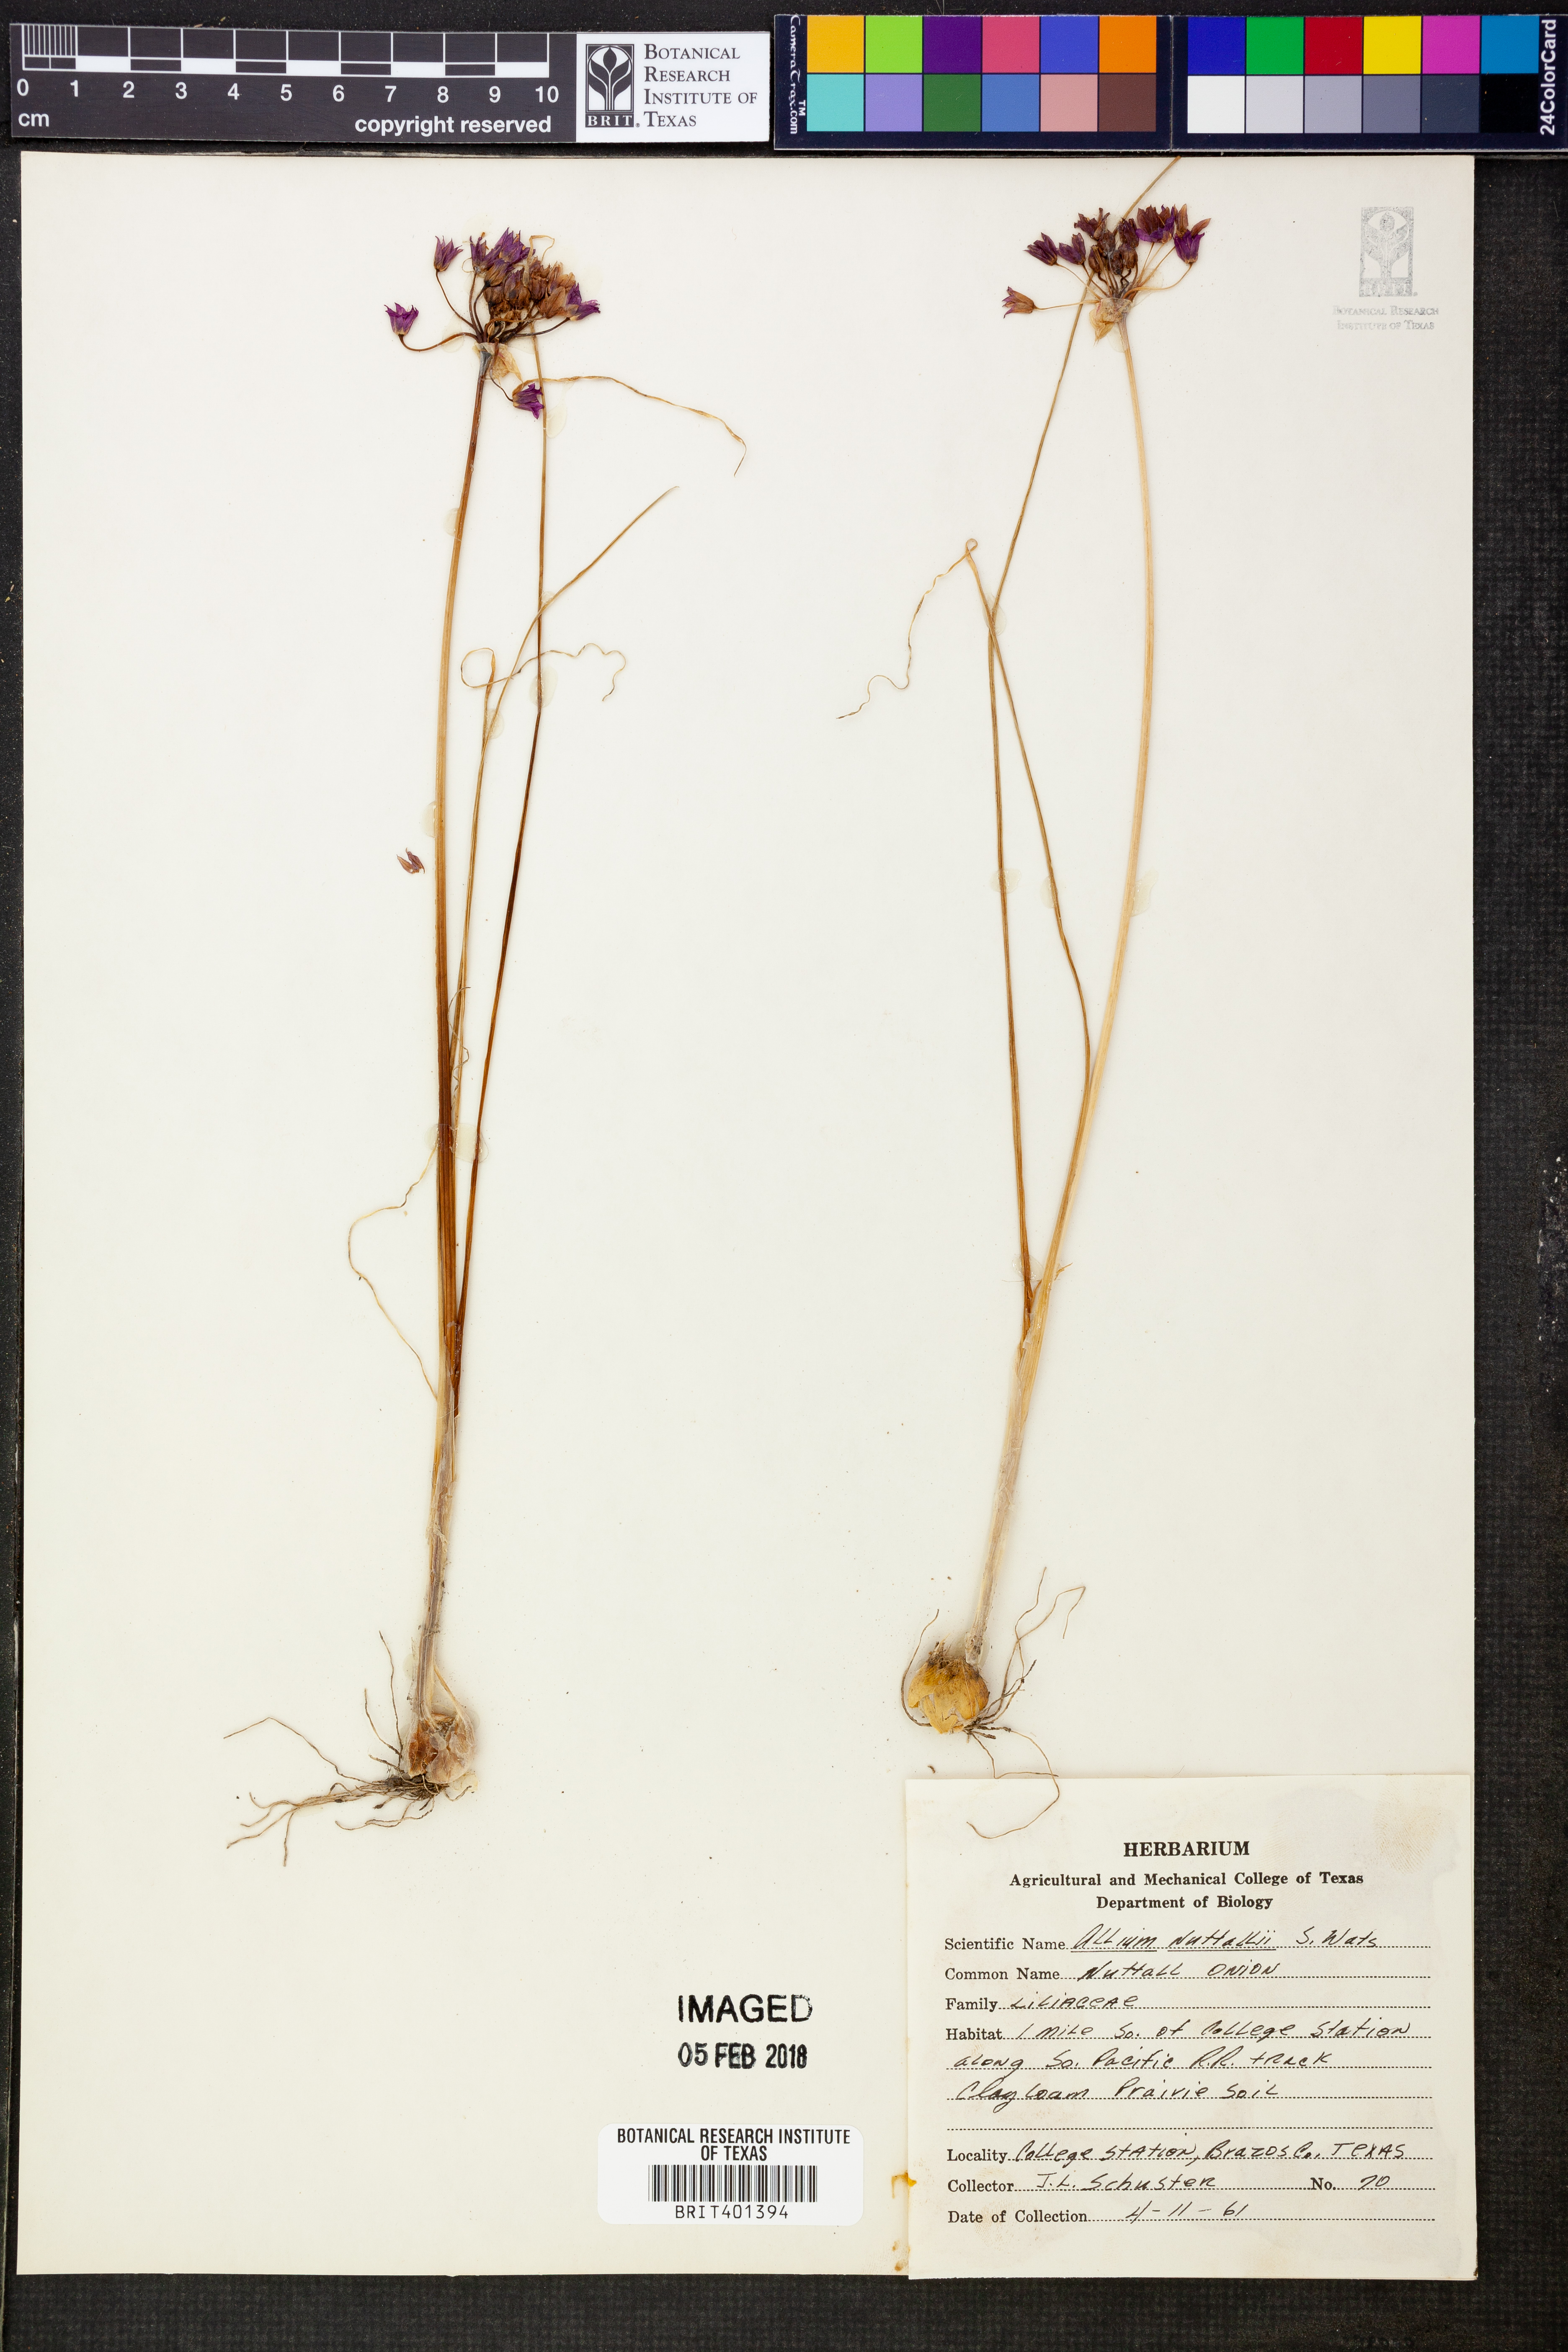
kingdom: Plantae
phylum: Tracheophyta
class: Liliopsida
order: Asparagales
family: Amaryllidaceae
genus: Allium
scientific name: Allium drummondii
